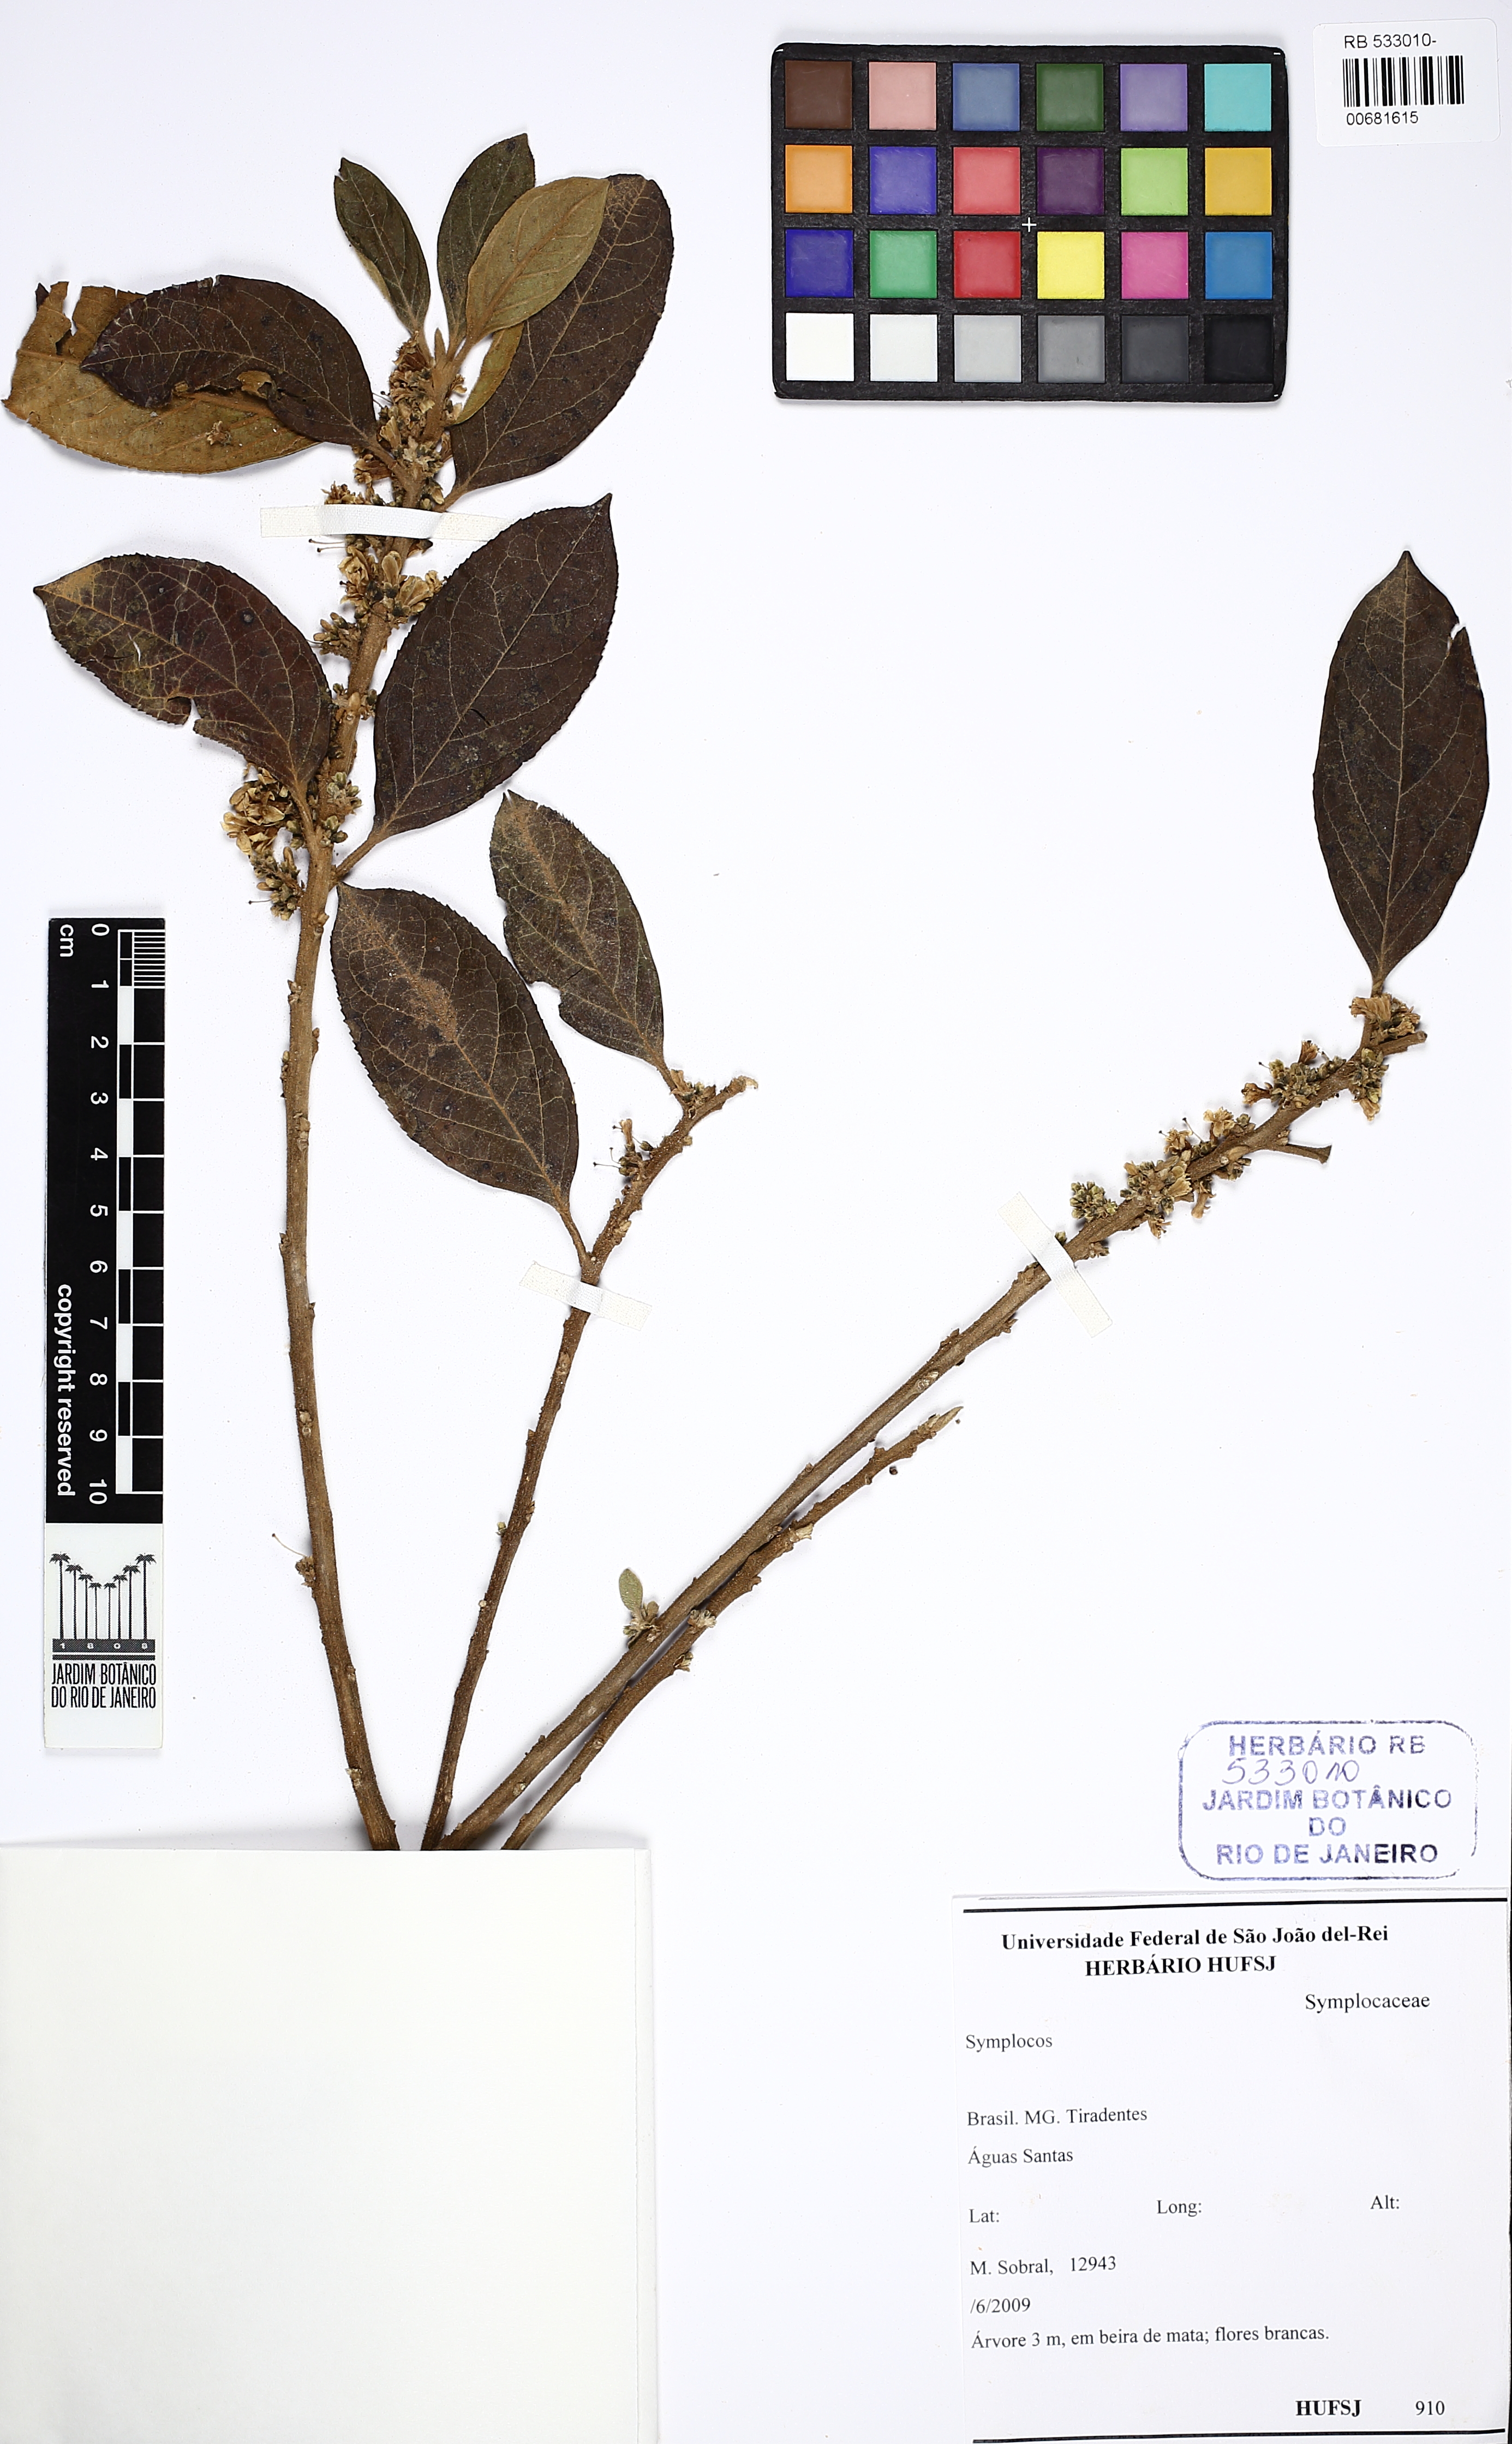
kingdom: Plantae
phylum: Tracheophyta
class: Magnoliopsida
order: Ericales
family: Symplocaceae
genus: Symplocos
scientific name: Symplocos
